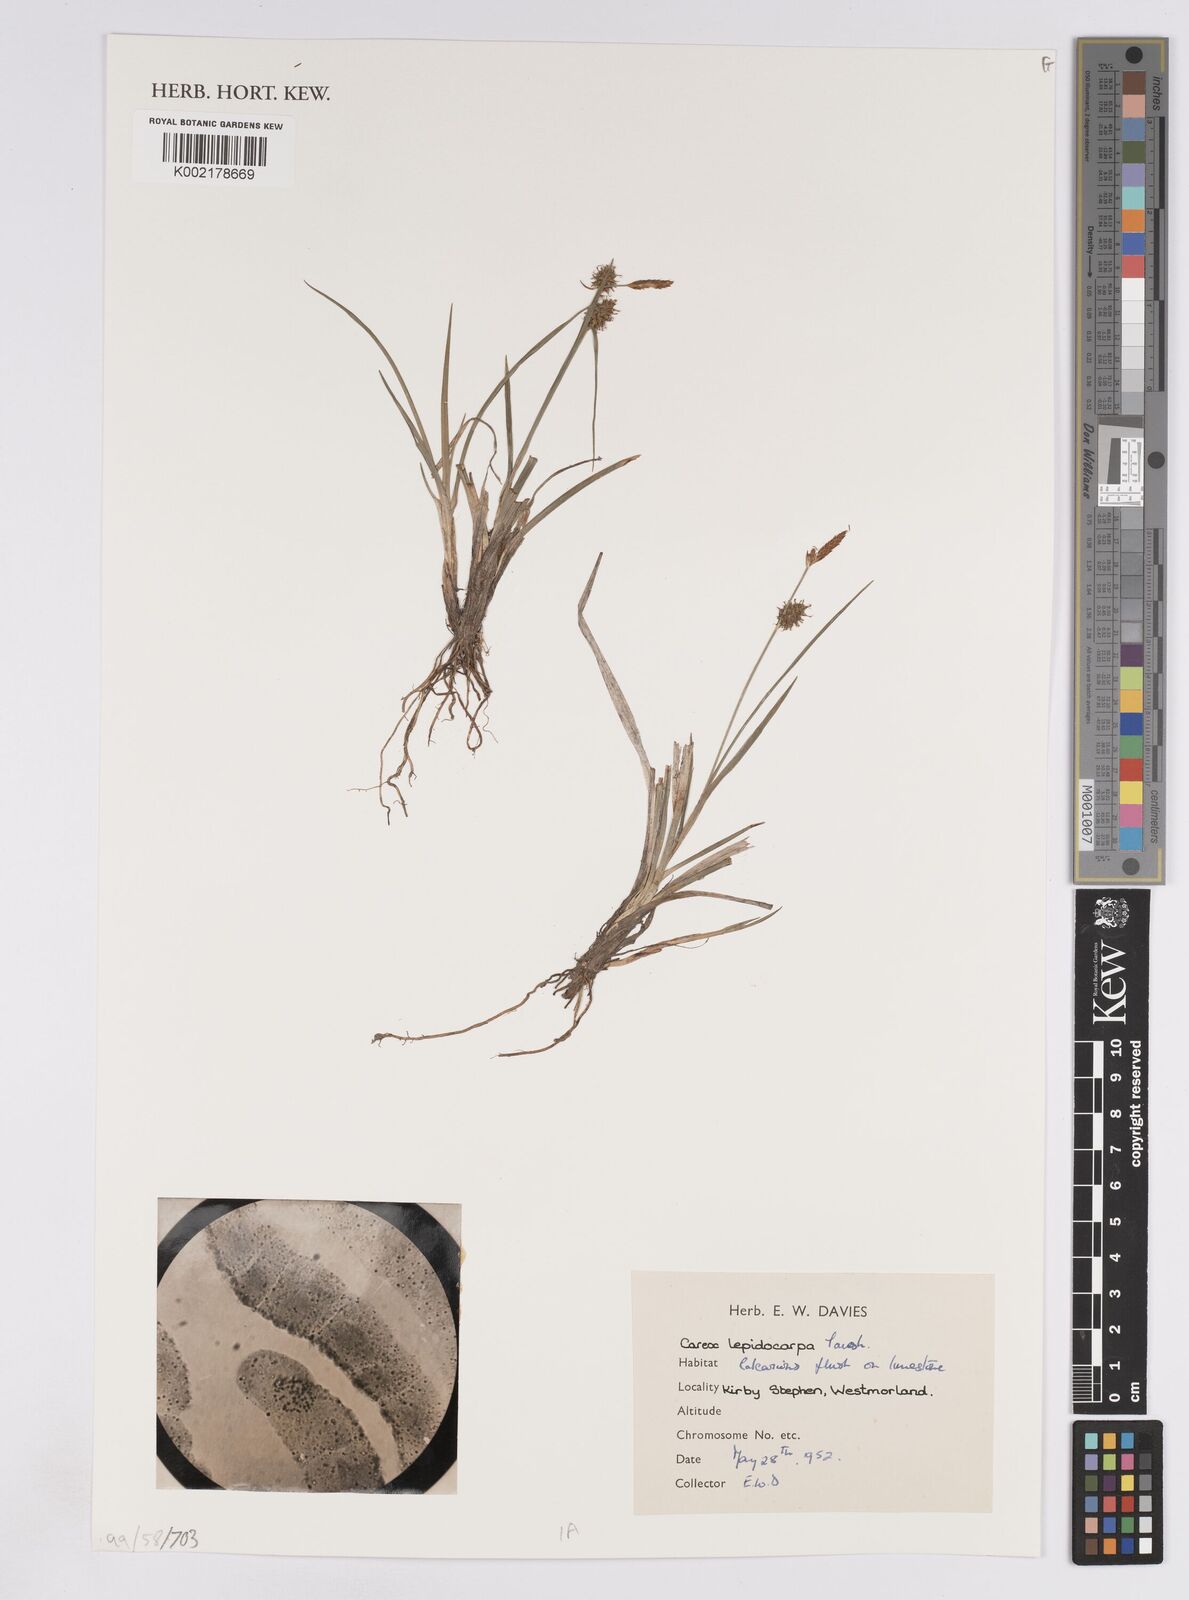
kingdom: Plantae
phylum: Tracheophyta
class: Liliopsida
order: Poales
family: Cyperaceae
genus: Carex
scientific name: Carex lepidocarpa
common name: Long-stalked yellow-sedge
